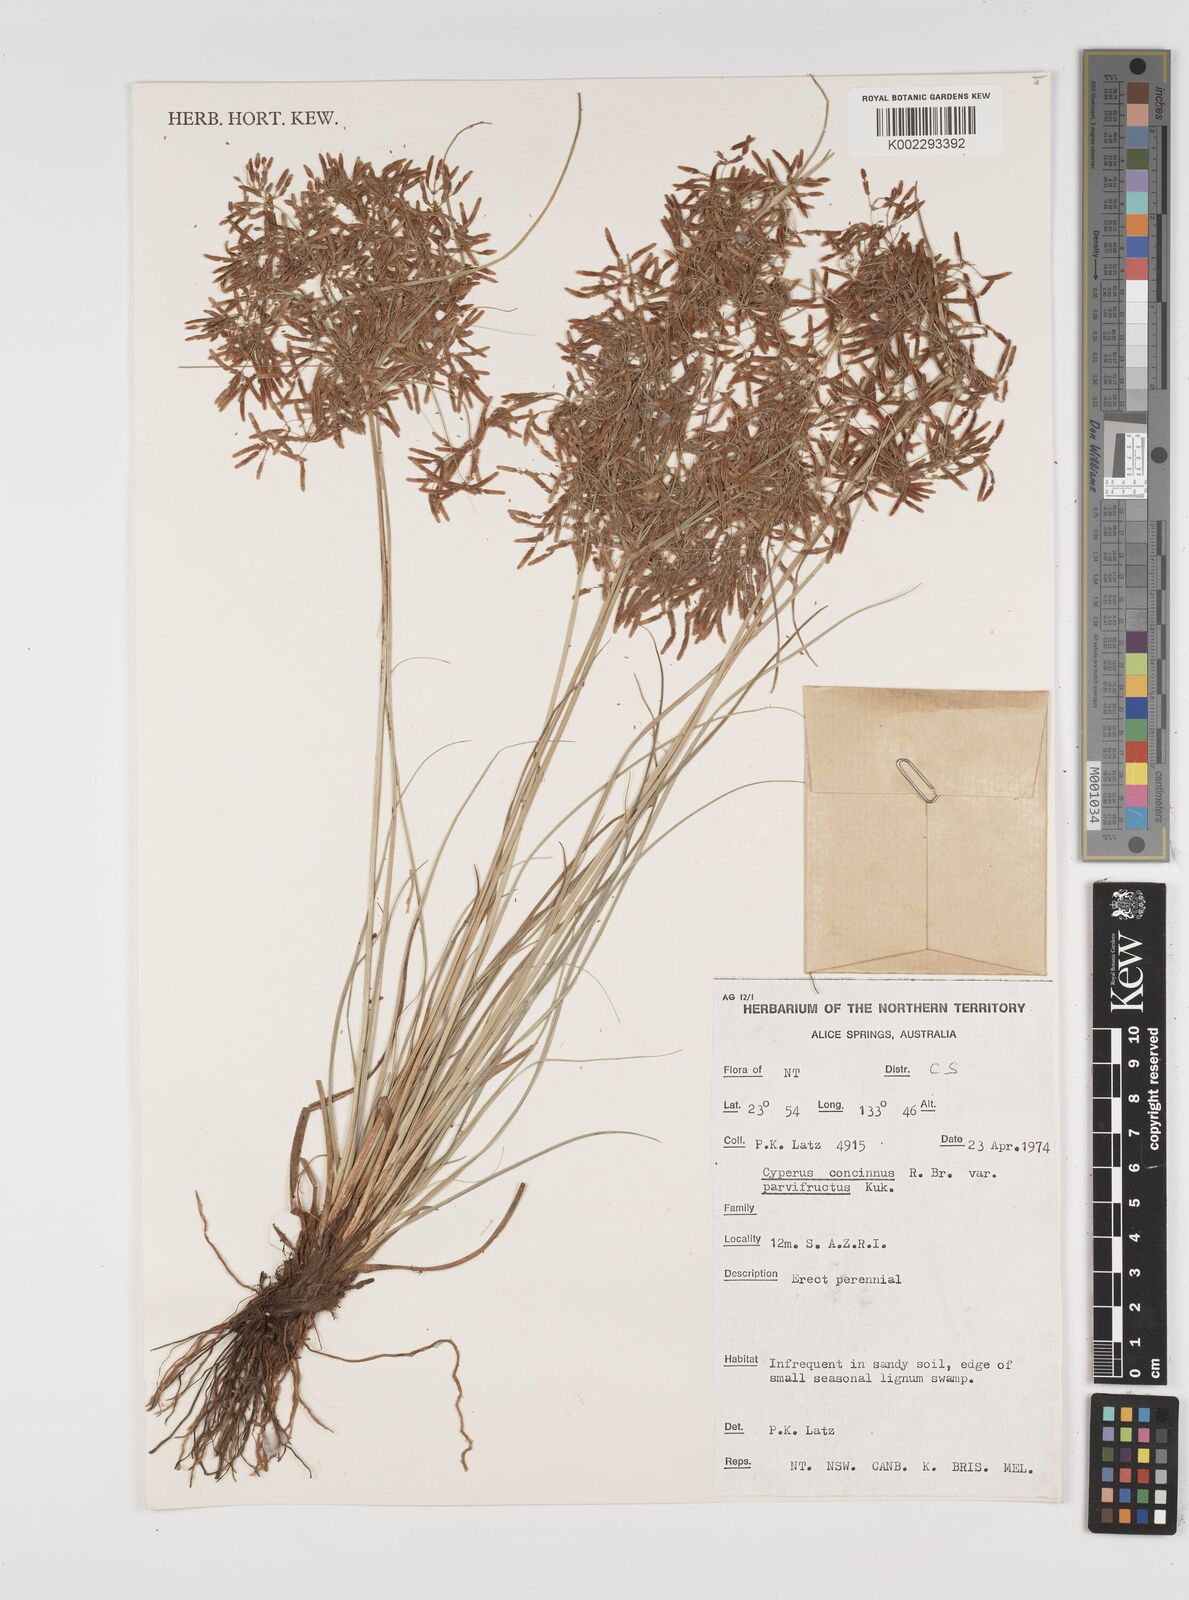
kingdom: Plantae
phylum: Tracheophyta
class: Liliopsida
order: Poales
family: Cyperaceae
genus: Cyperus
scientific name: Cyperus concinnus
